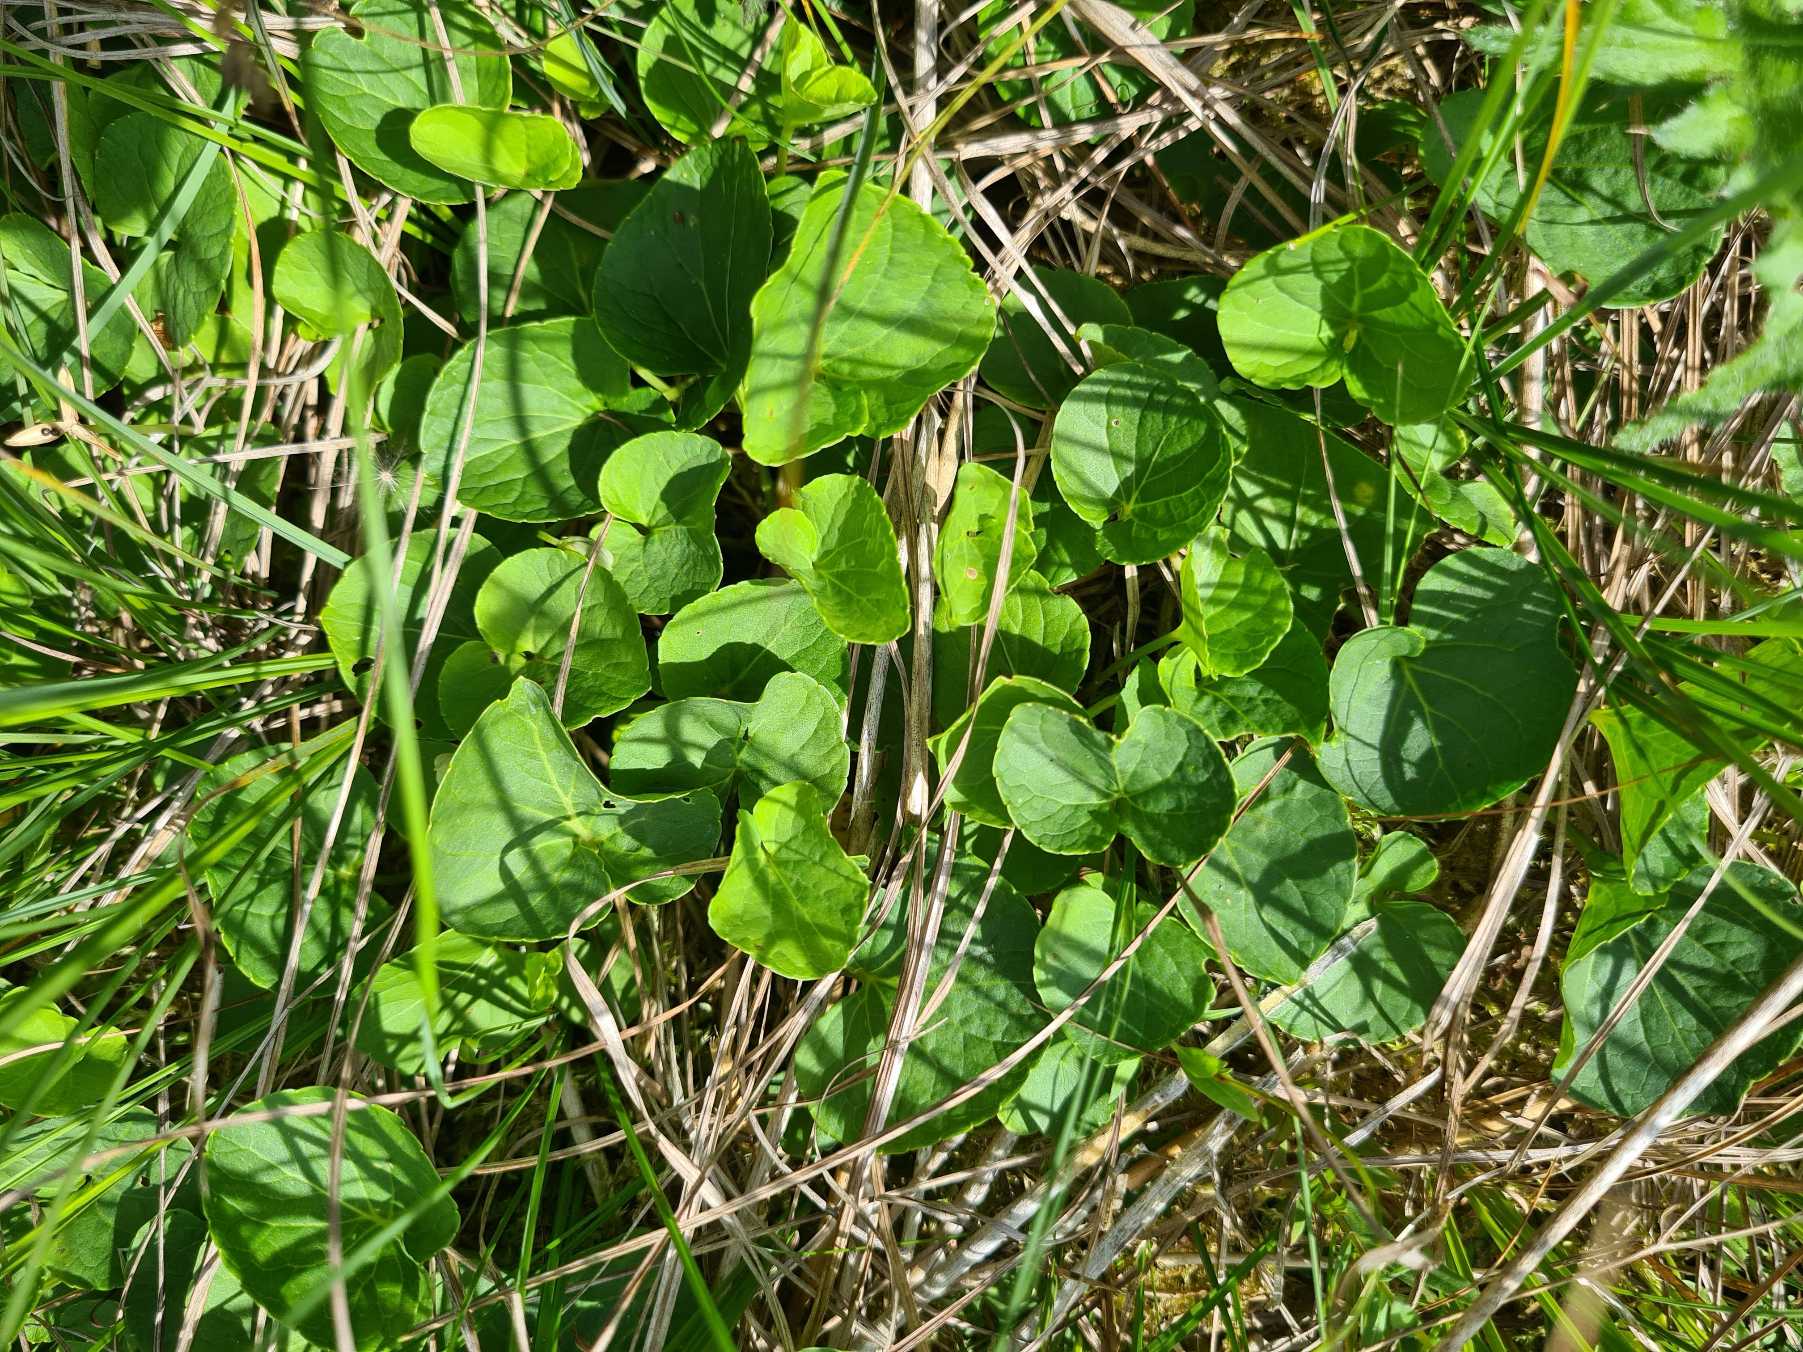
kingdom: Plantae
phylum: Tracheophyta
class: Magnoliopsida
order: Malpighiales
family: Violaceae
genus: Viola
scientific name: Viola palustris
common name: Eng-viol
